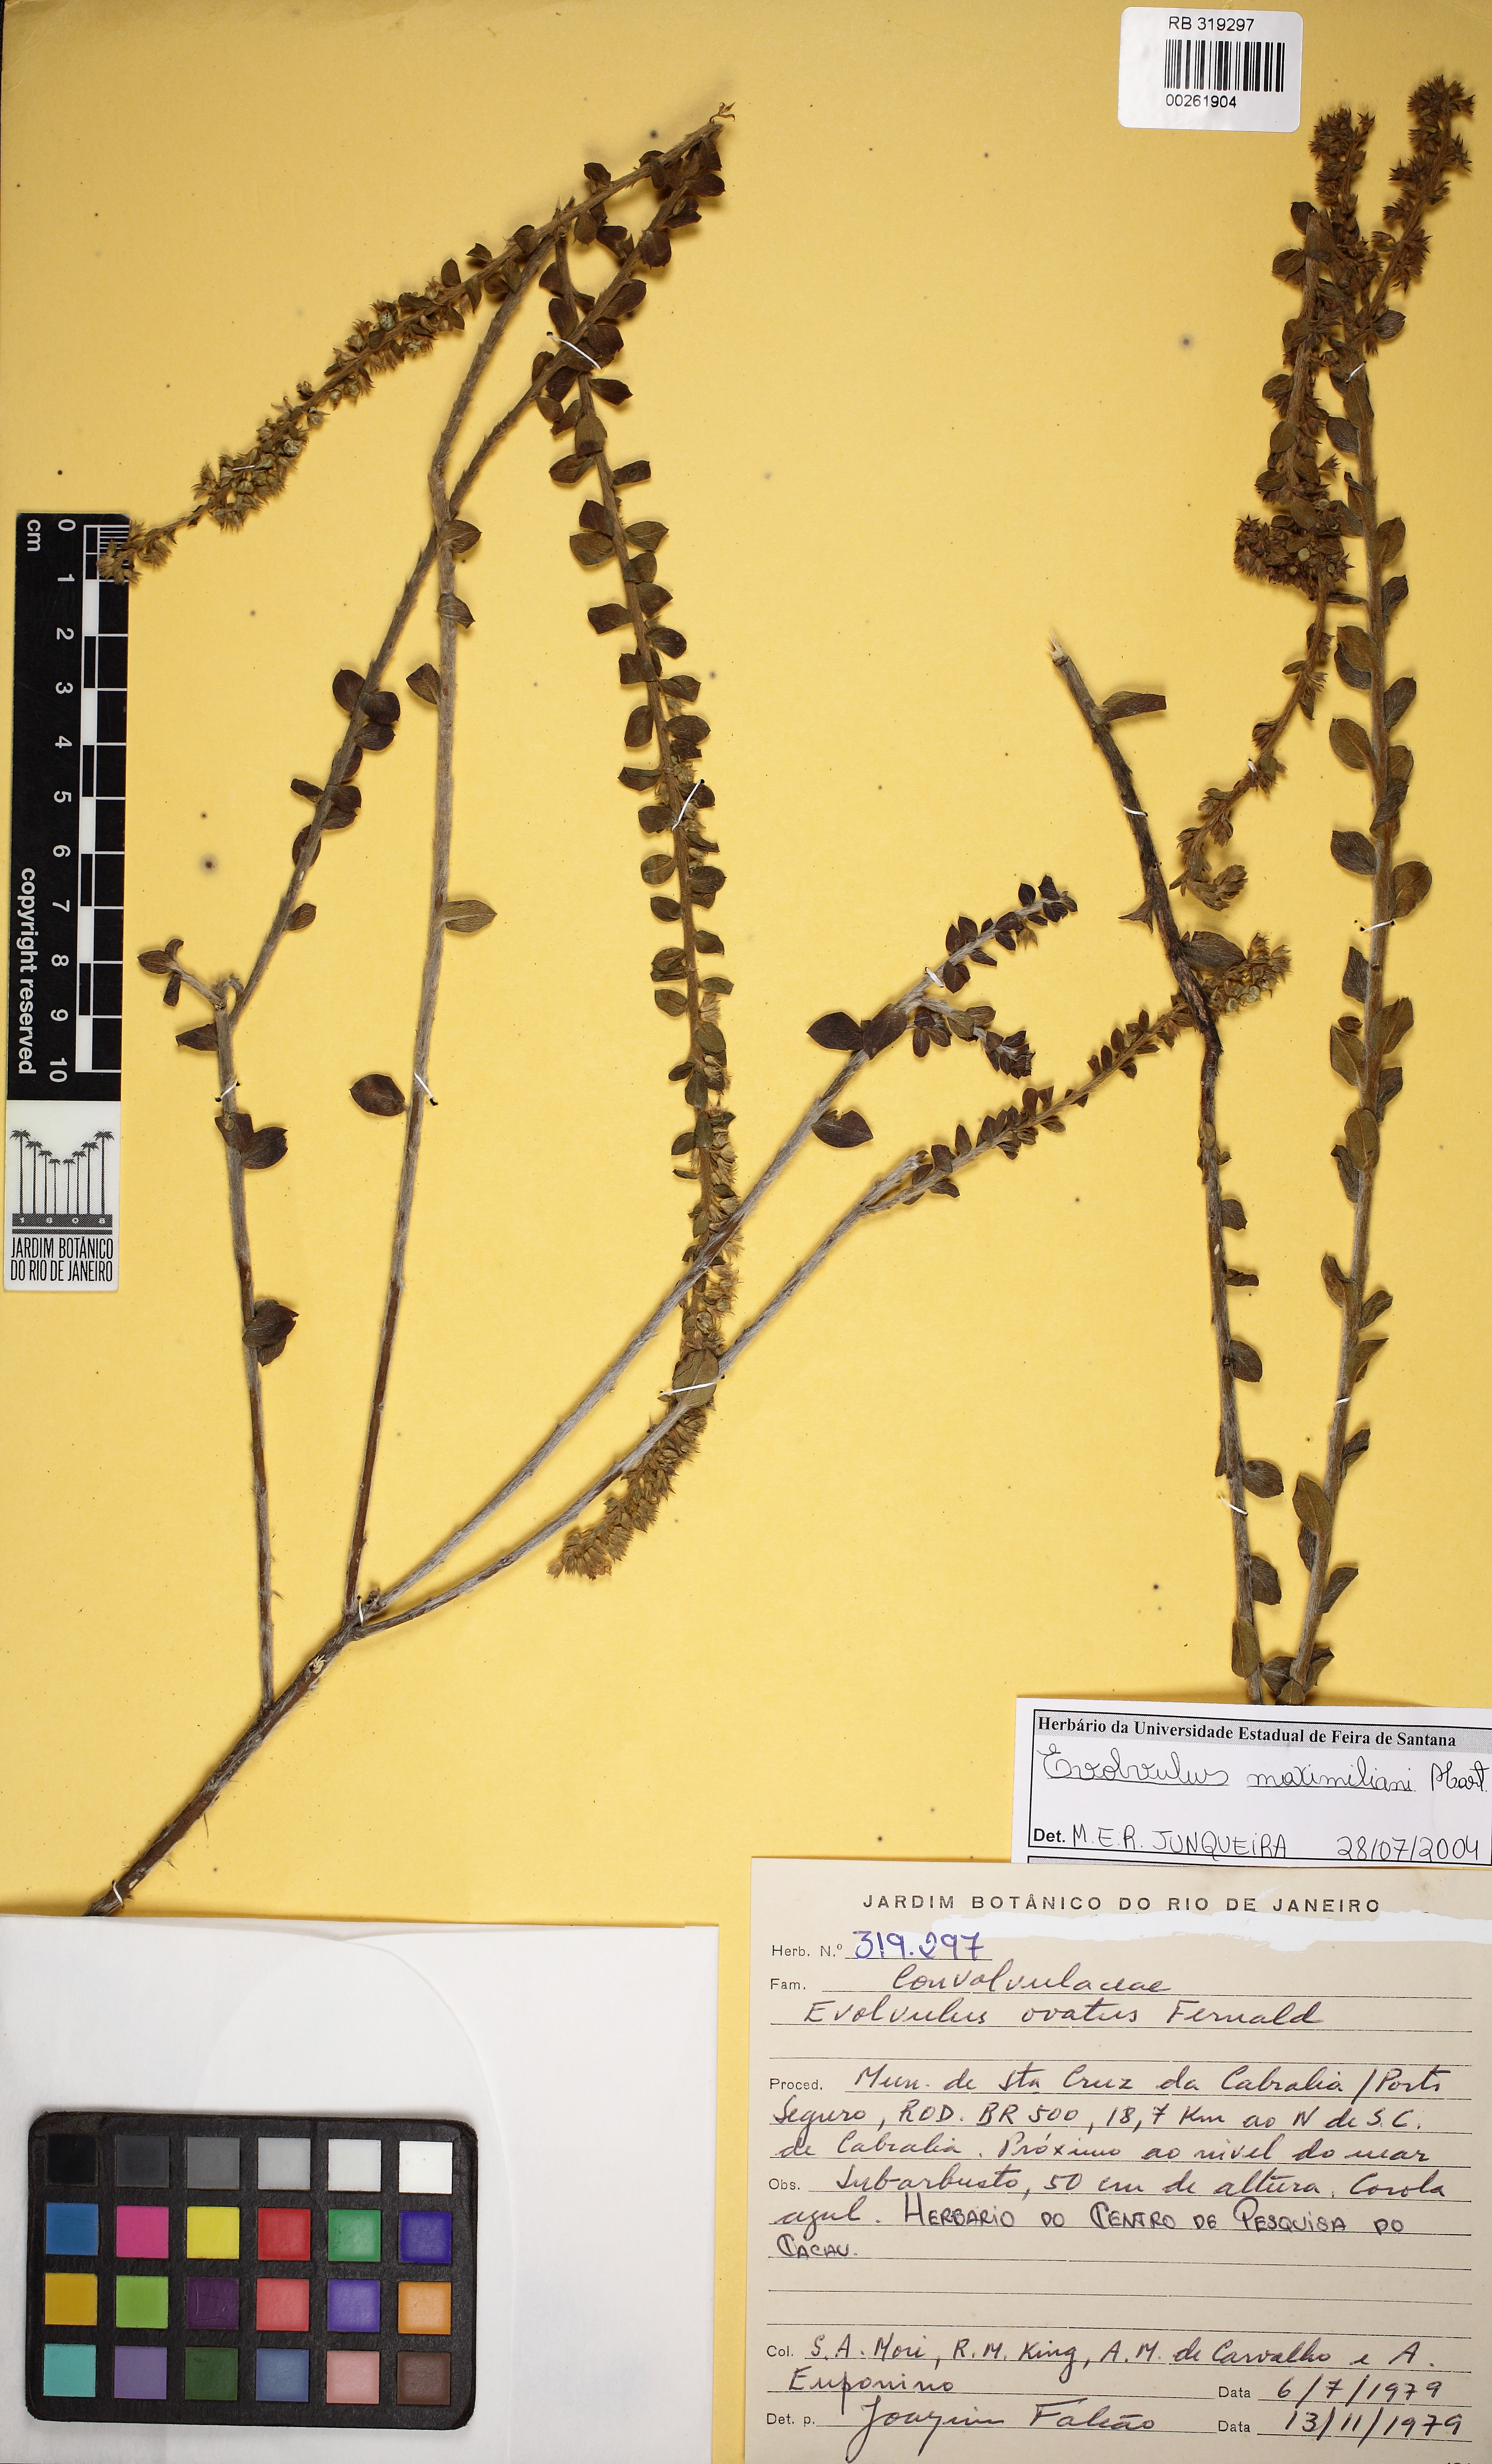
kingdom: Plantae
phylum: Tracheophyta
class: Magnoliopsida
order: Solanales
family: Convolvulaceae
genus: Evolvulus
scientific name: Evolvulus maximiliani
